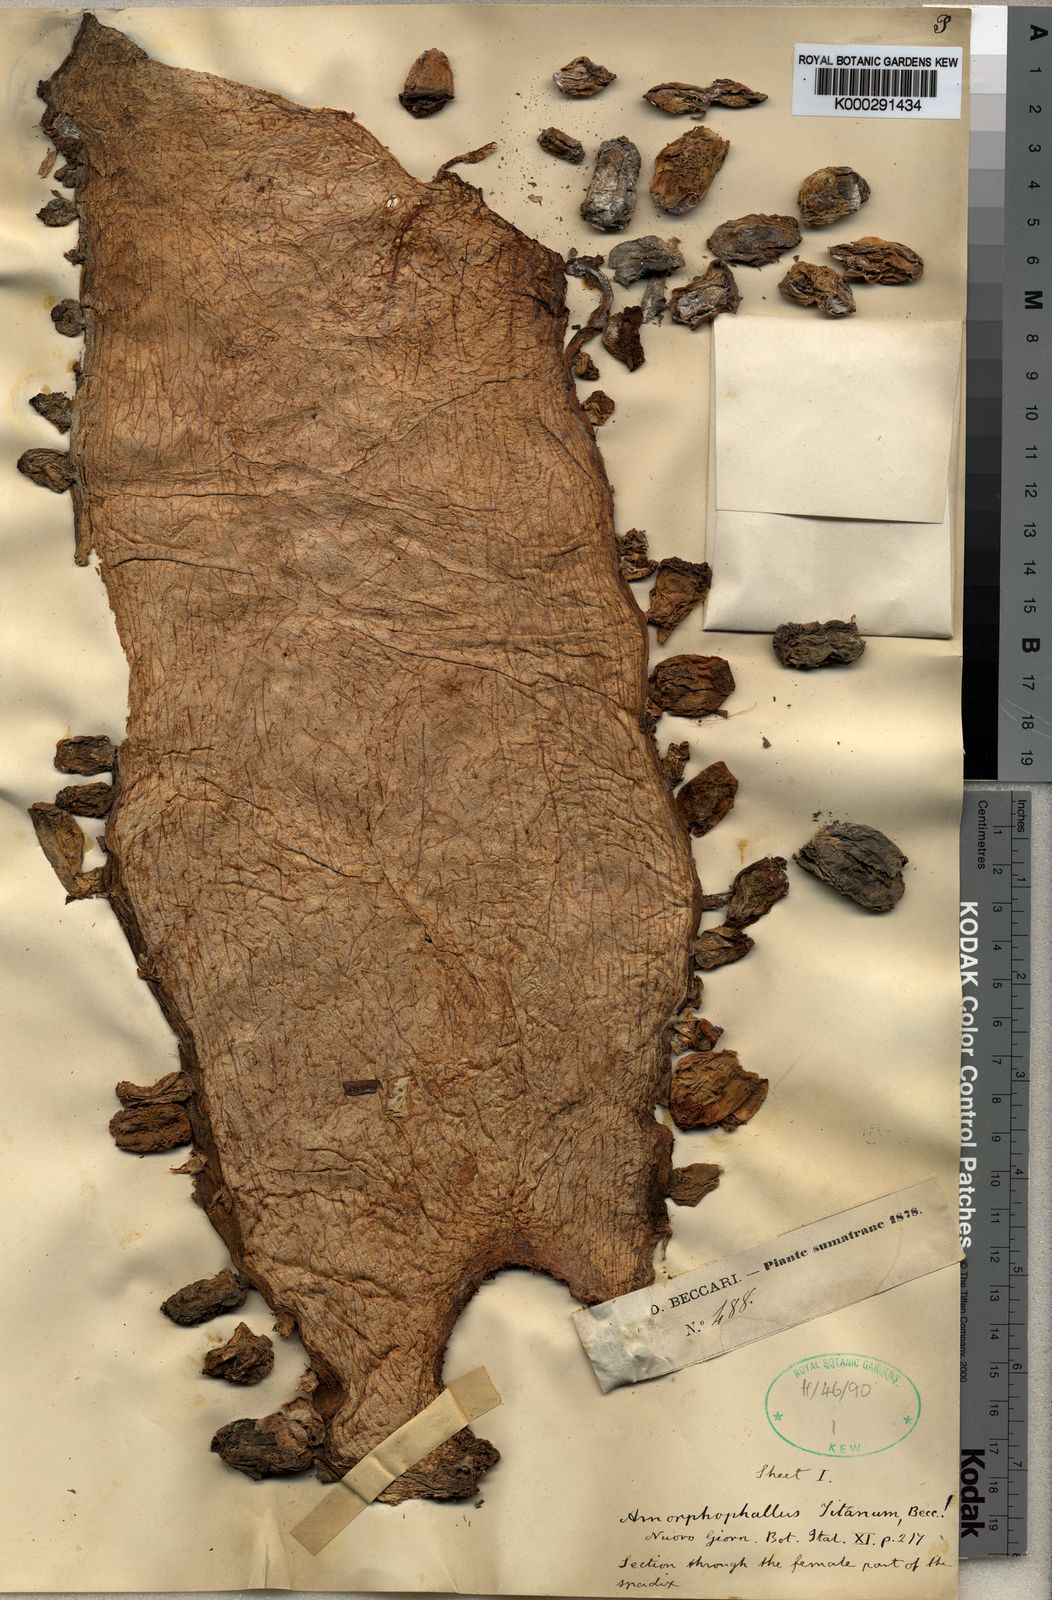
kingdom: Plantae
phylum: Tracheophyta
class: Liliopsida
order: Alismatales
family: Araceae
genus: Amorphophallus
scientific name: Amorphophallus titanum
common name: Titan arum
